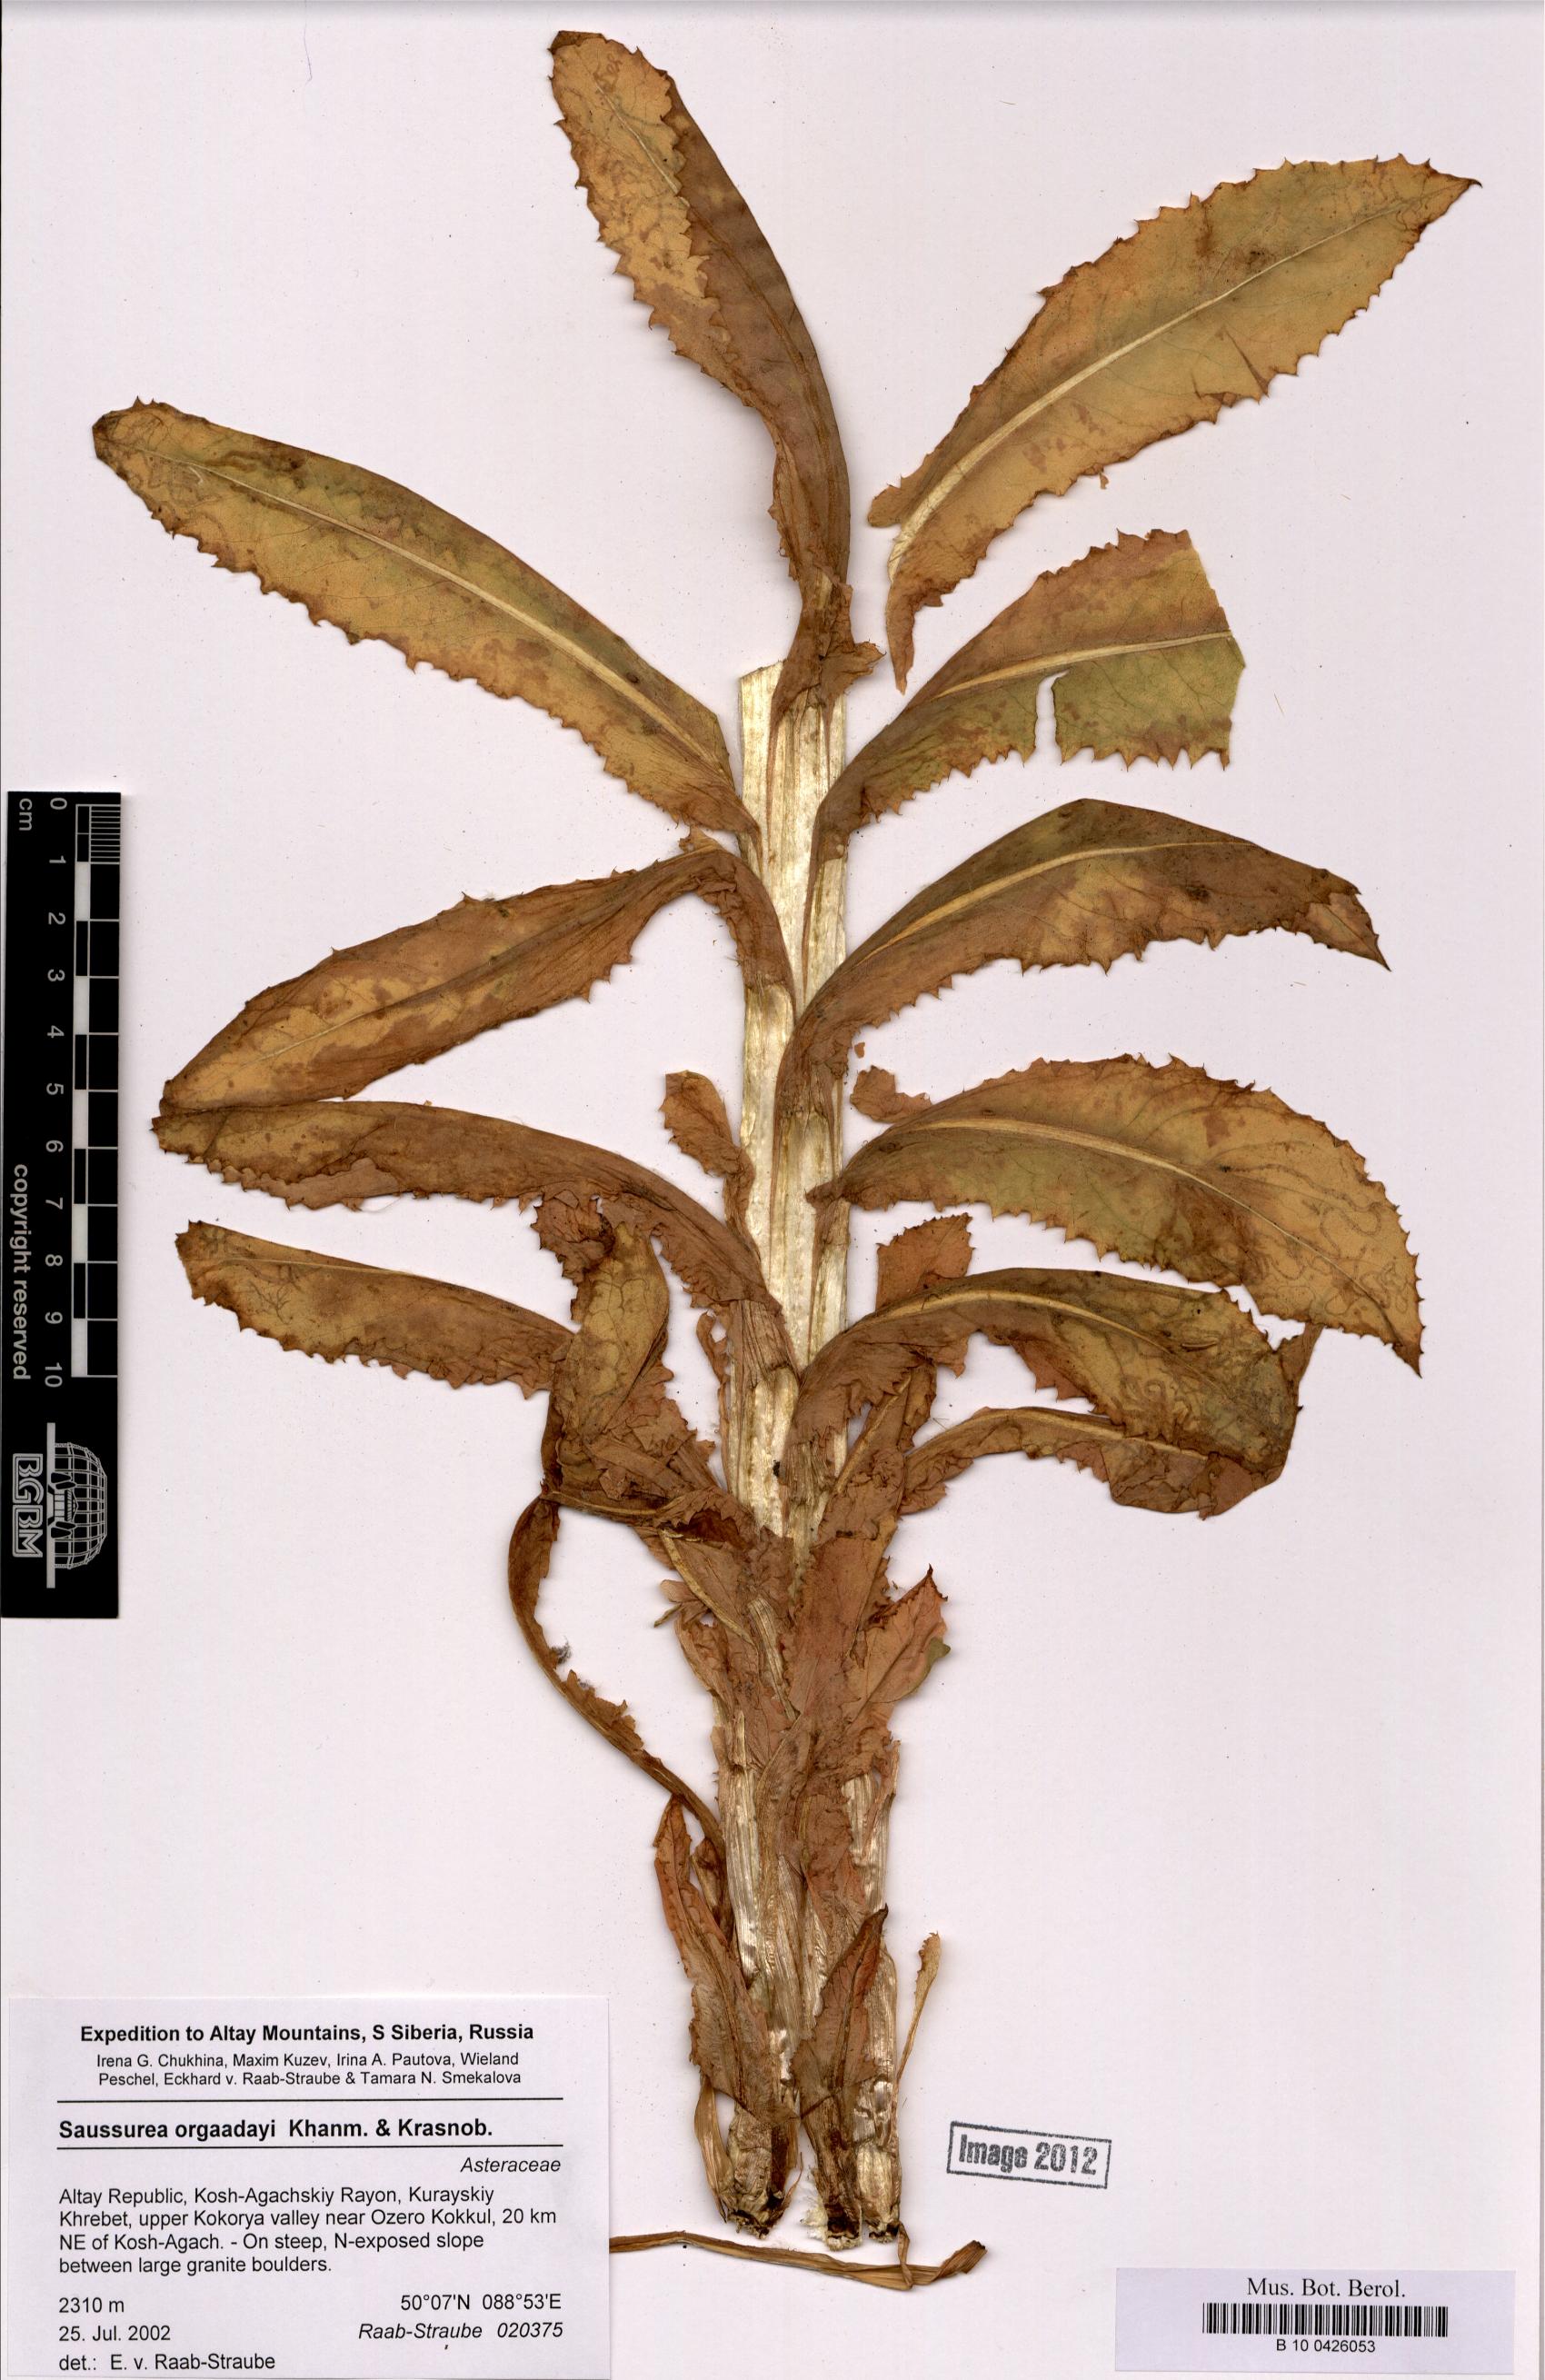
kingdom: Plantae
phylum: Tracheophyta
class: Magnoliopsida
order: Asterales
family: Asteraceae
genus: Saussurea
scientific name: Saussurea orgaadayi
